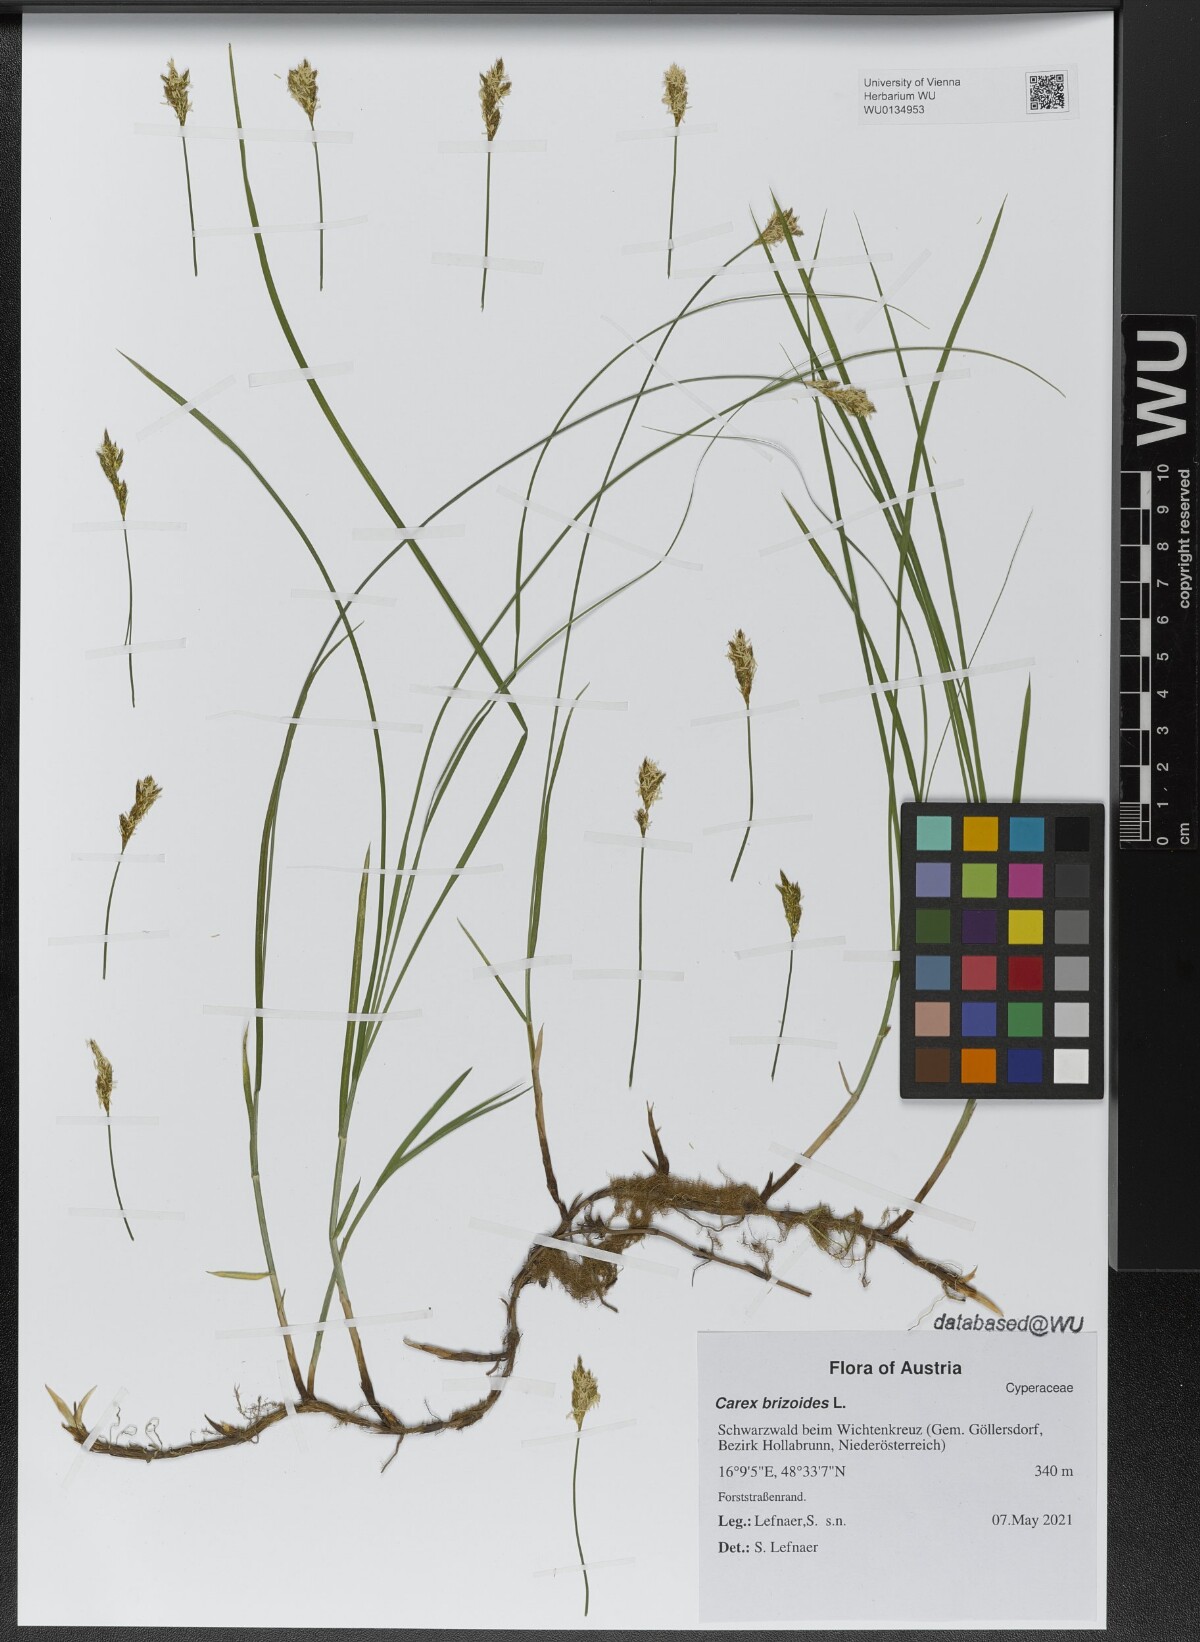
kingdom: Plantae
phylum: Tracheophyta
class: Liliopsida
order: Poales
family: Cyperaceae
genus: Carex
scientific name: Carex brizoides
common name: Quaking-grass sedge
